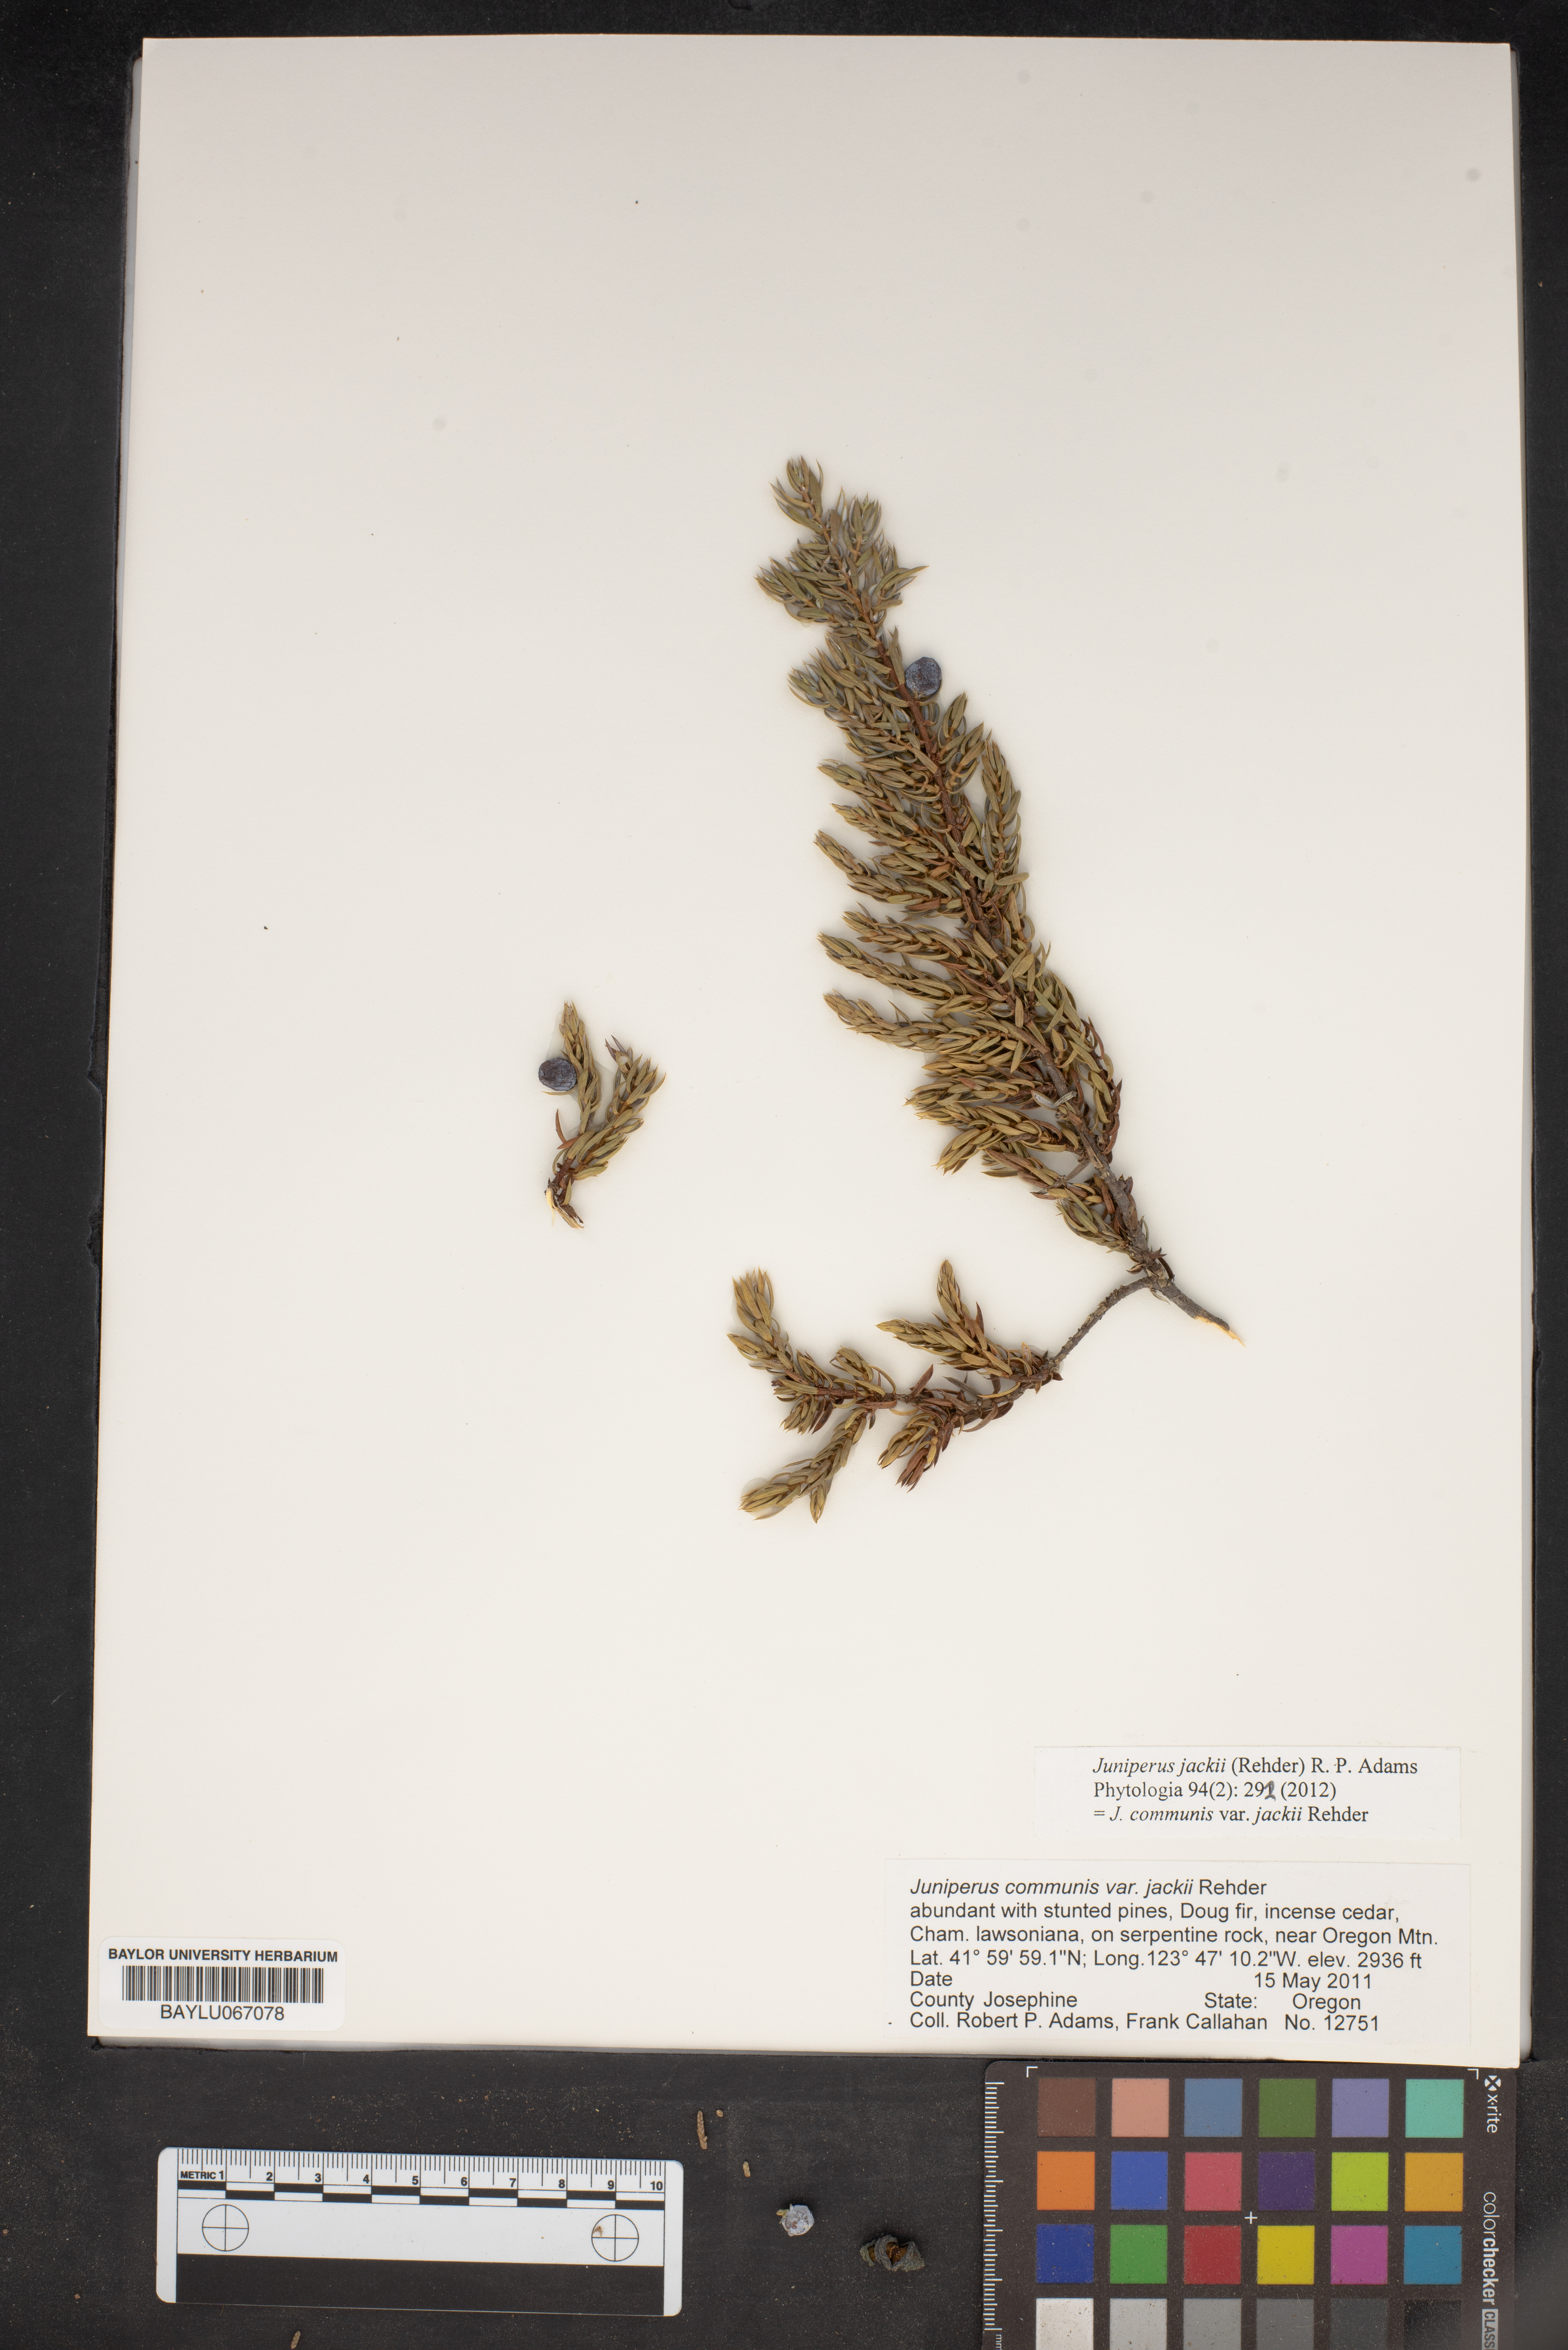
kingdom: Plantae
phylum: Tracheophyta
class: Pinopsida
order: Pinales
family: Cupressaceae
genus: Juniperus
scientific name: Juniperus communis
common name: Common juniper
